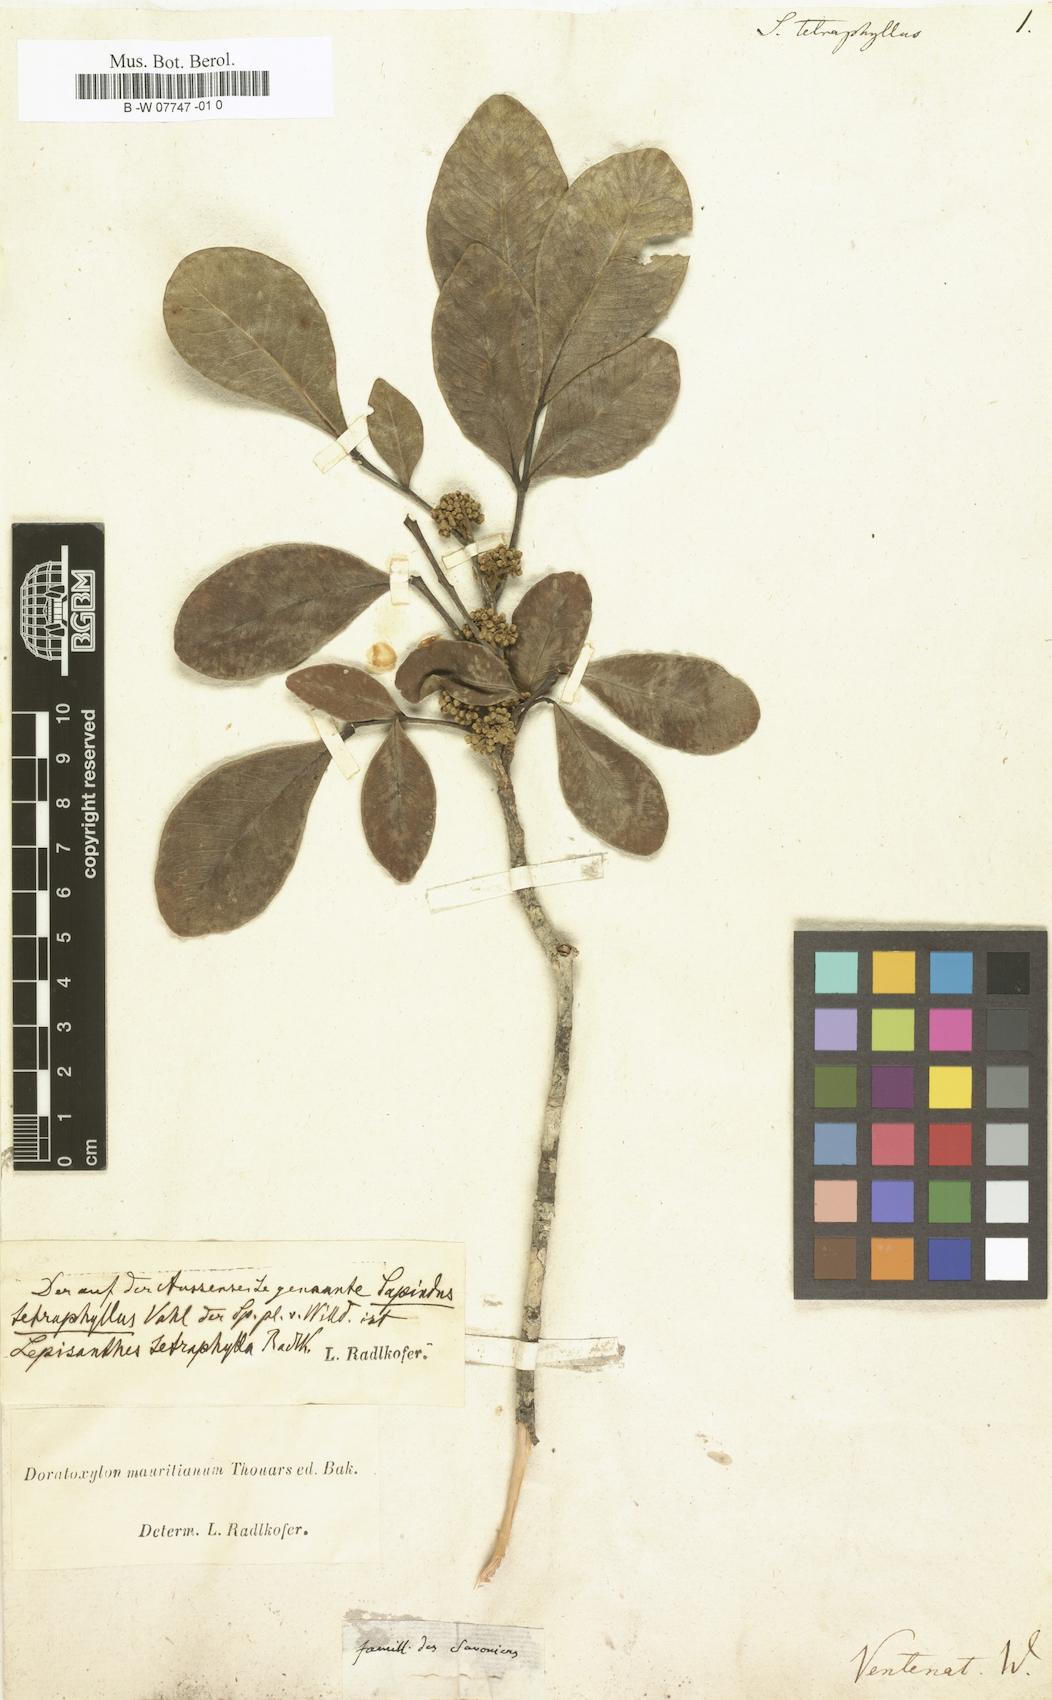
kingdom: Plantae
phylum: Tracheophyta
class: Magnoliopsida
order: Sapindales
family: Sapindaceae
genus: Lepisanthes
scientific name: Lepisanthes tetraphylla
